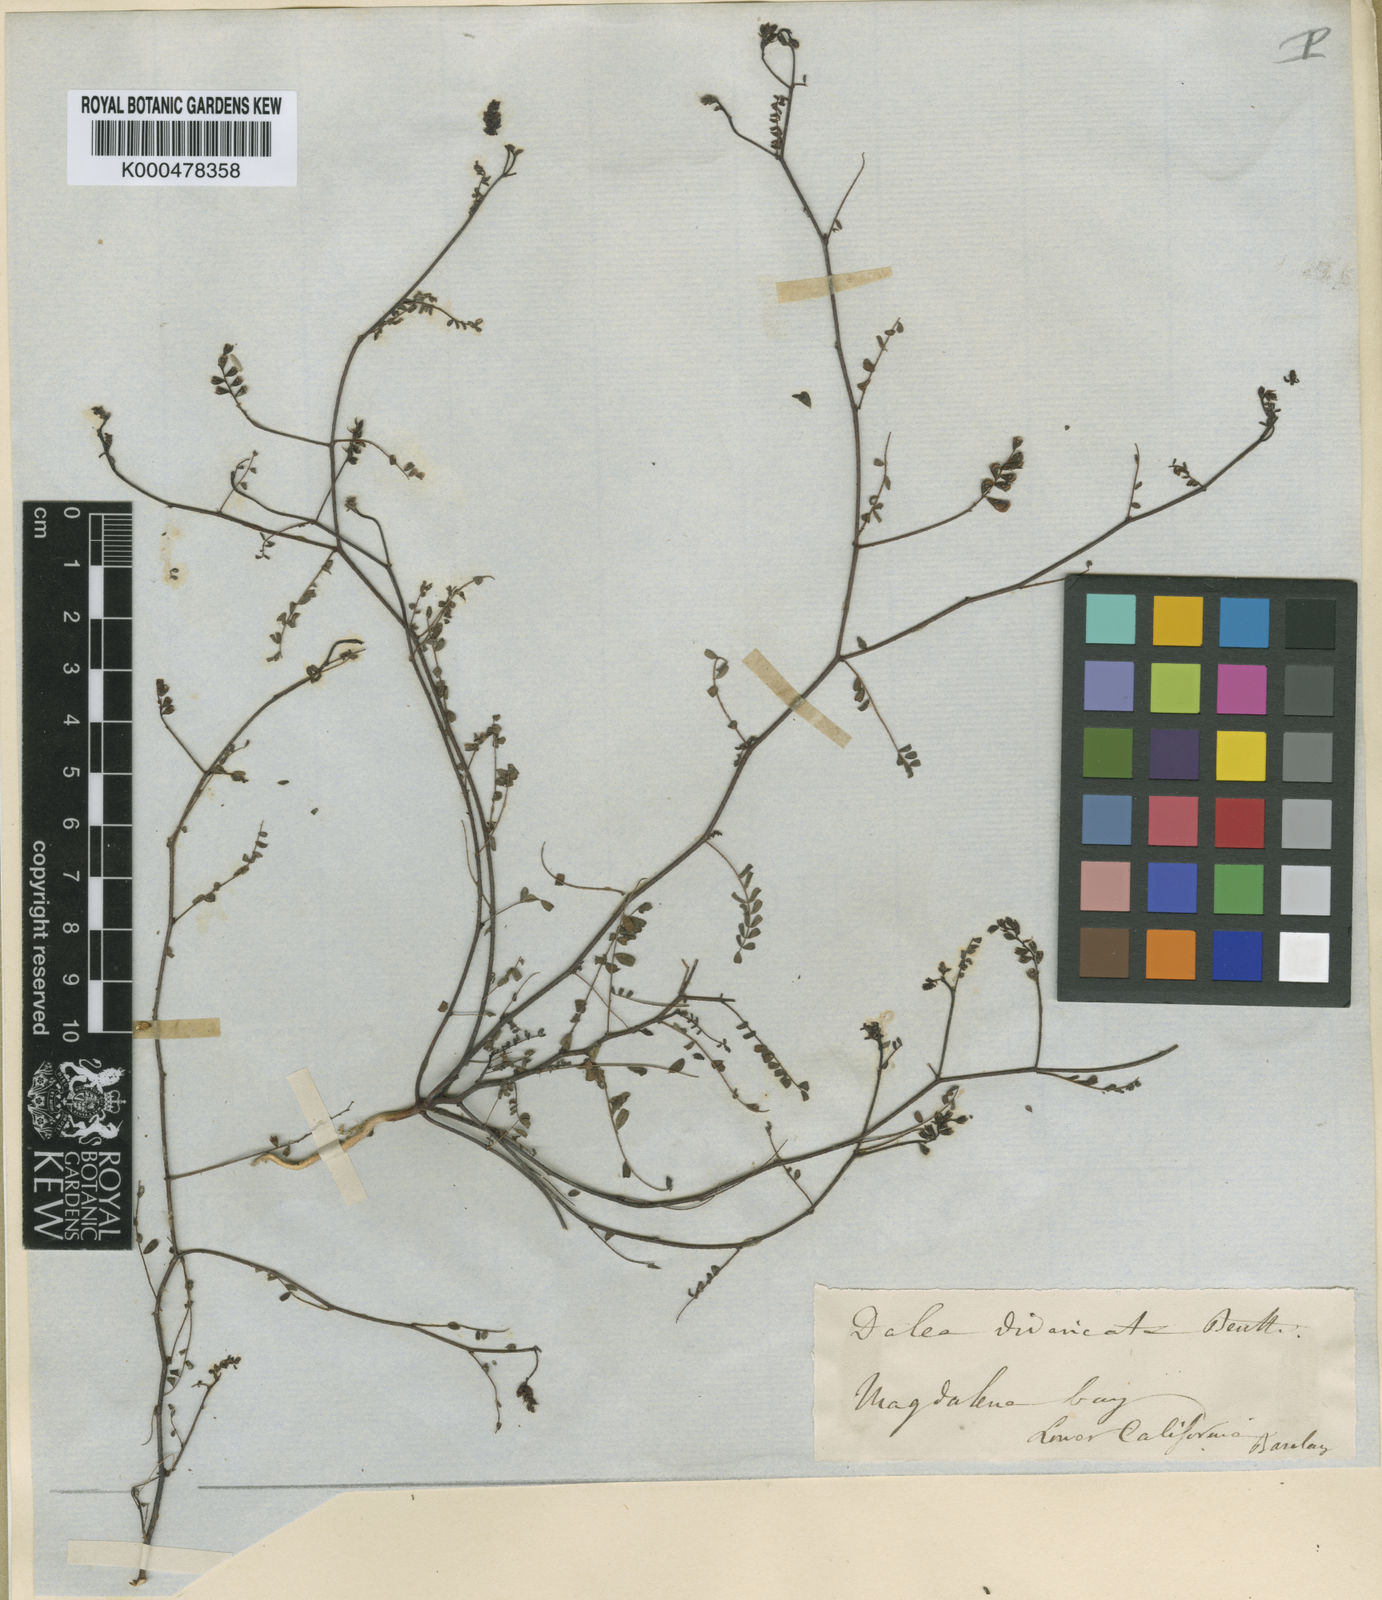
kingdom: Plantae
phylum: Tracheophyta
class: Magnoliopsida
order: Fabales
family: Fabaceae
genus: Marina
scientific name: Marina divaricata
